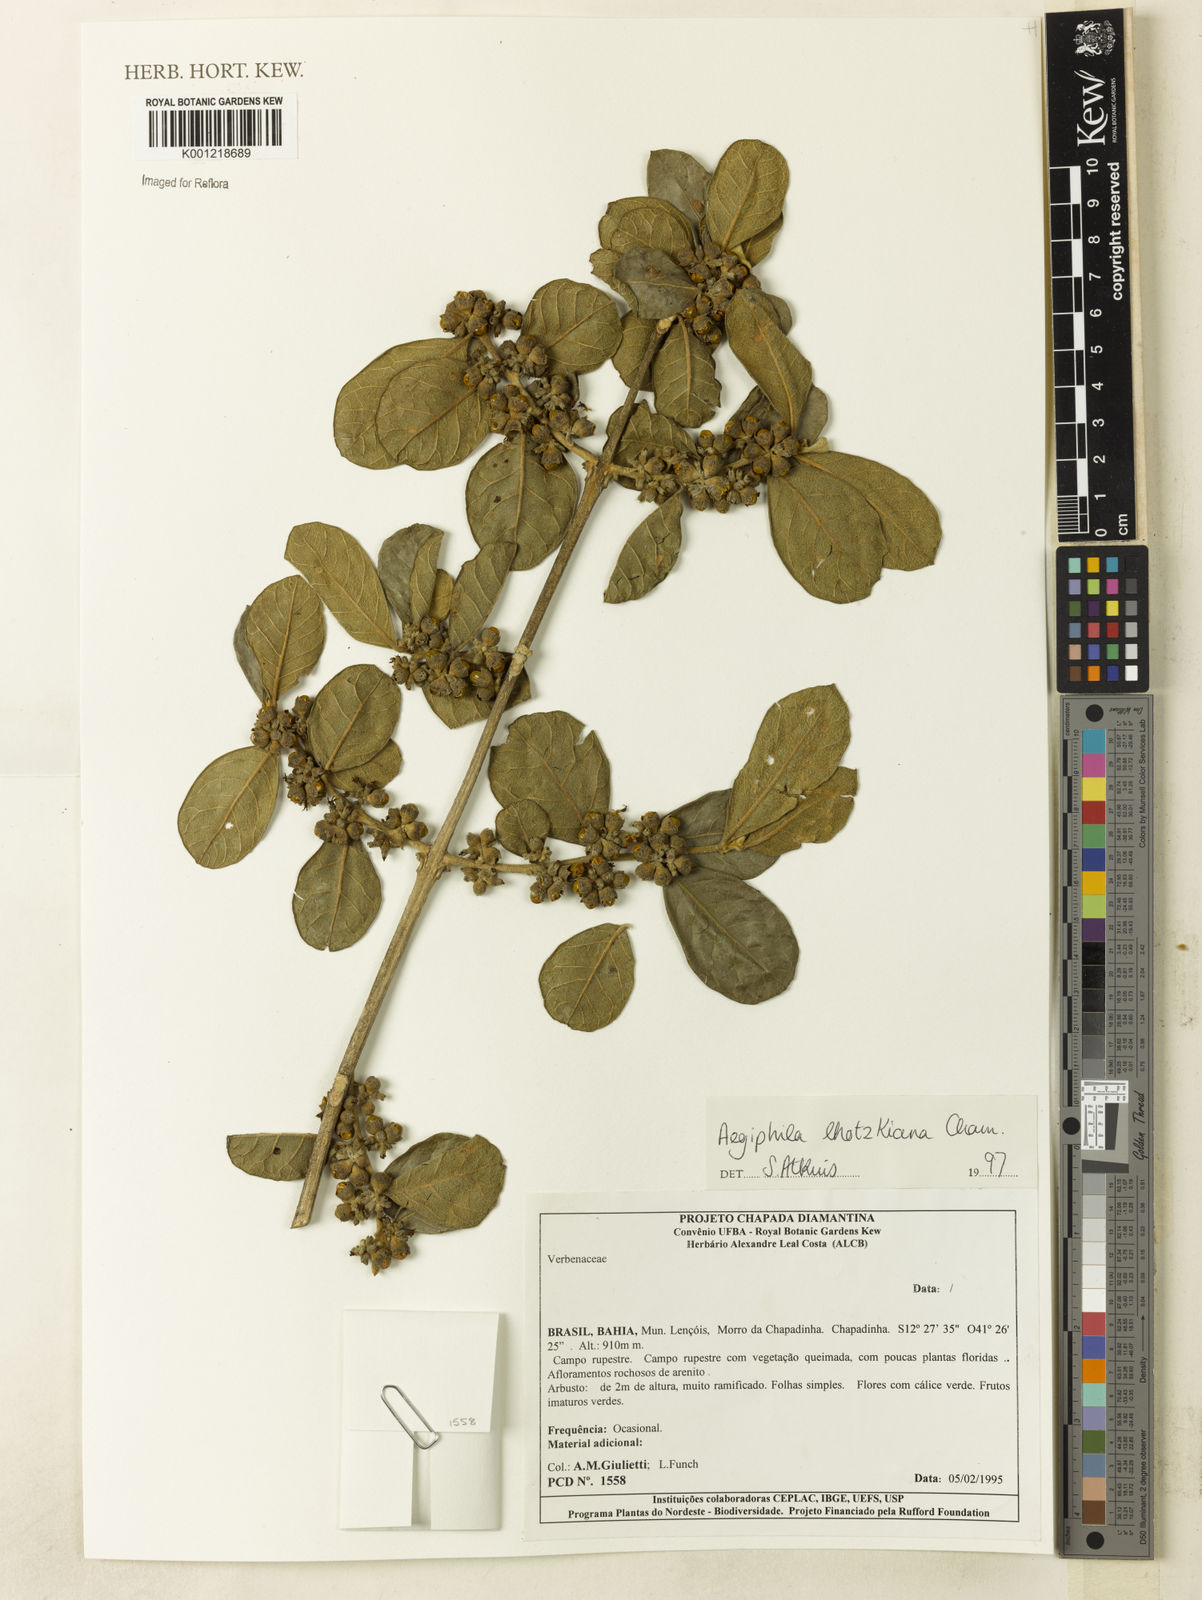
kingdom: Plantae
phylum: Tracheophyta
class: Magnoliopsida
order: Lamiales
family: Lamiaceae
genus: Aegiphila
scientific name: Aegiphila verticillata
